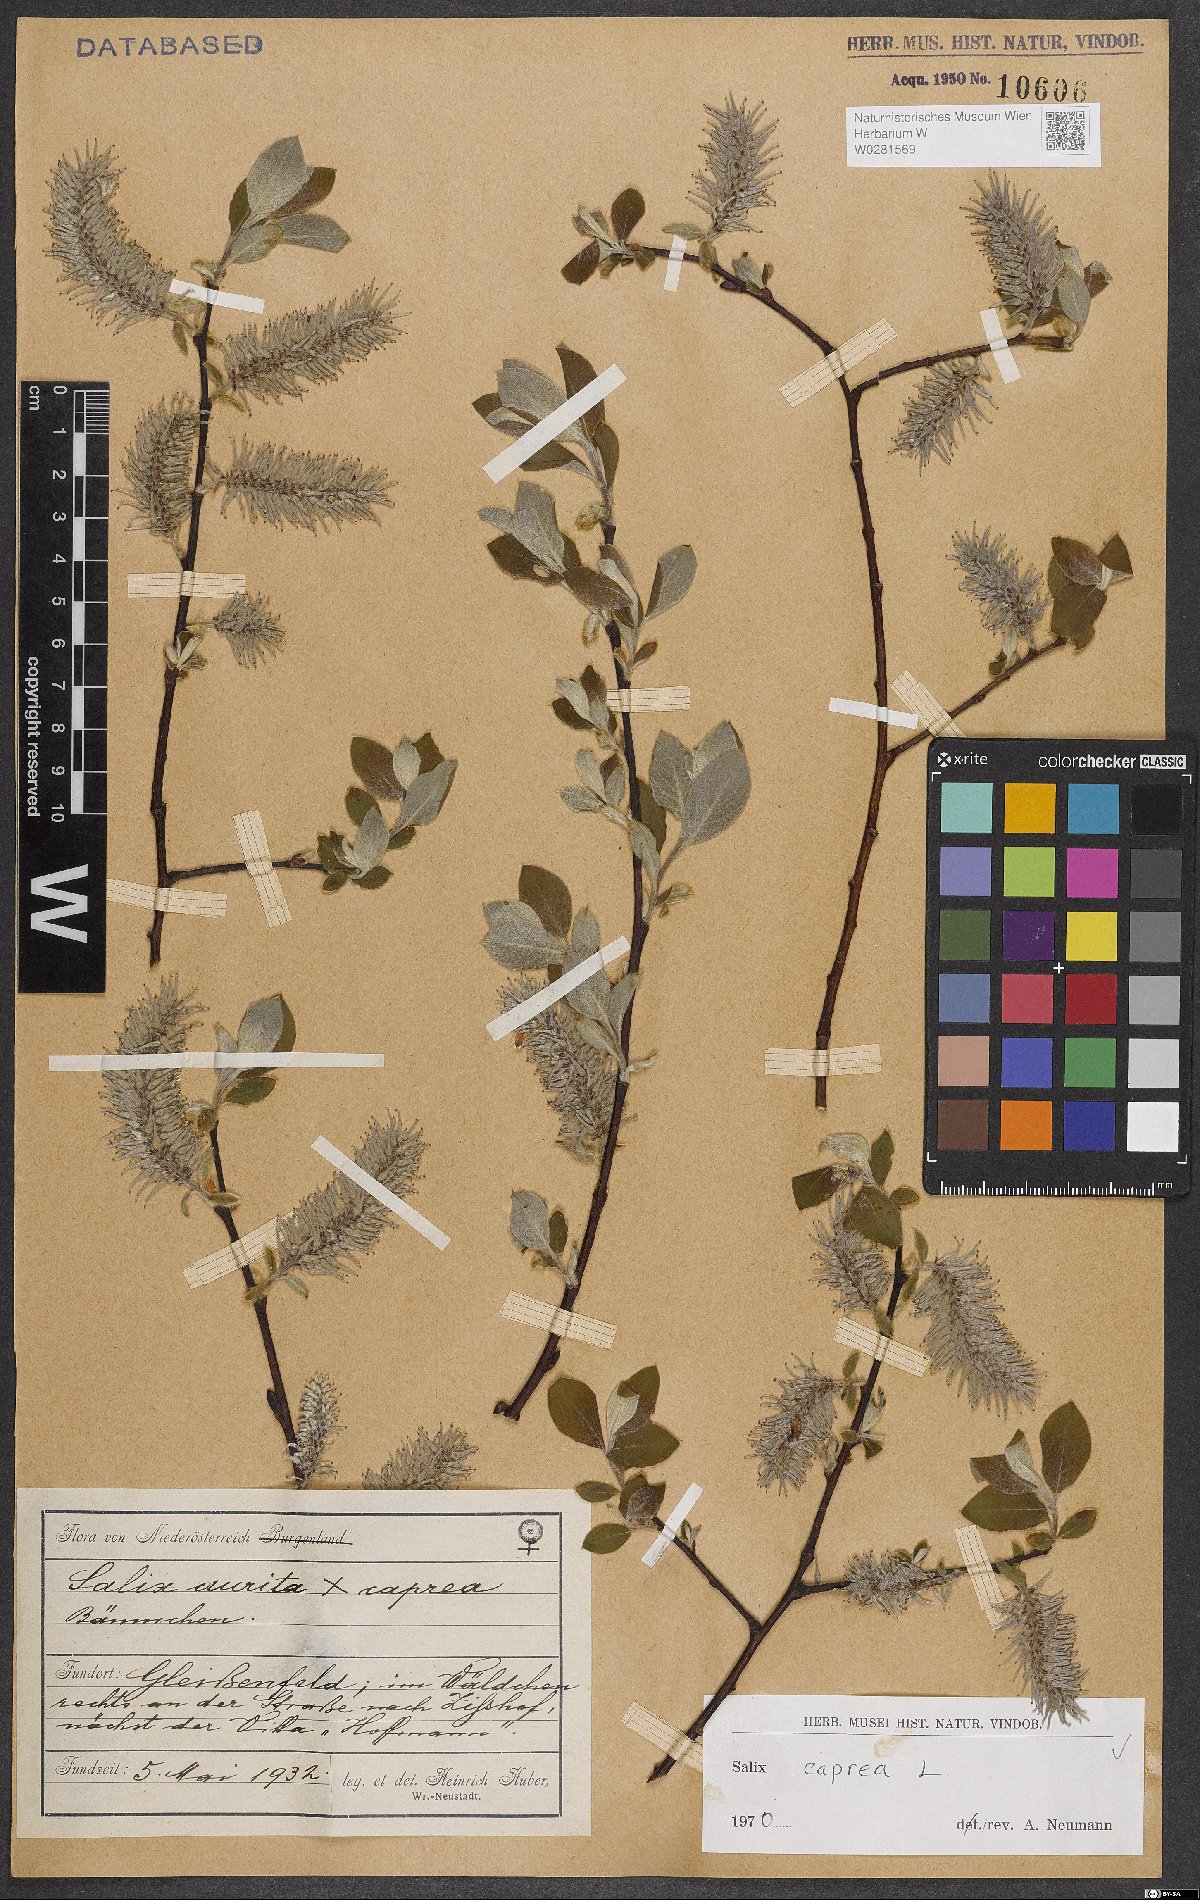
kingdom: Plantae
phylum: Tracheophyta
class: Magnoliopsida
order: Malpighiales
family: Salicaceae
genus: Salix
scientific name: Salix caprea
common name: Goat willow
